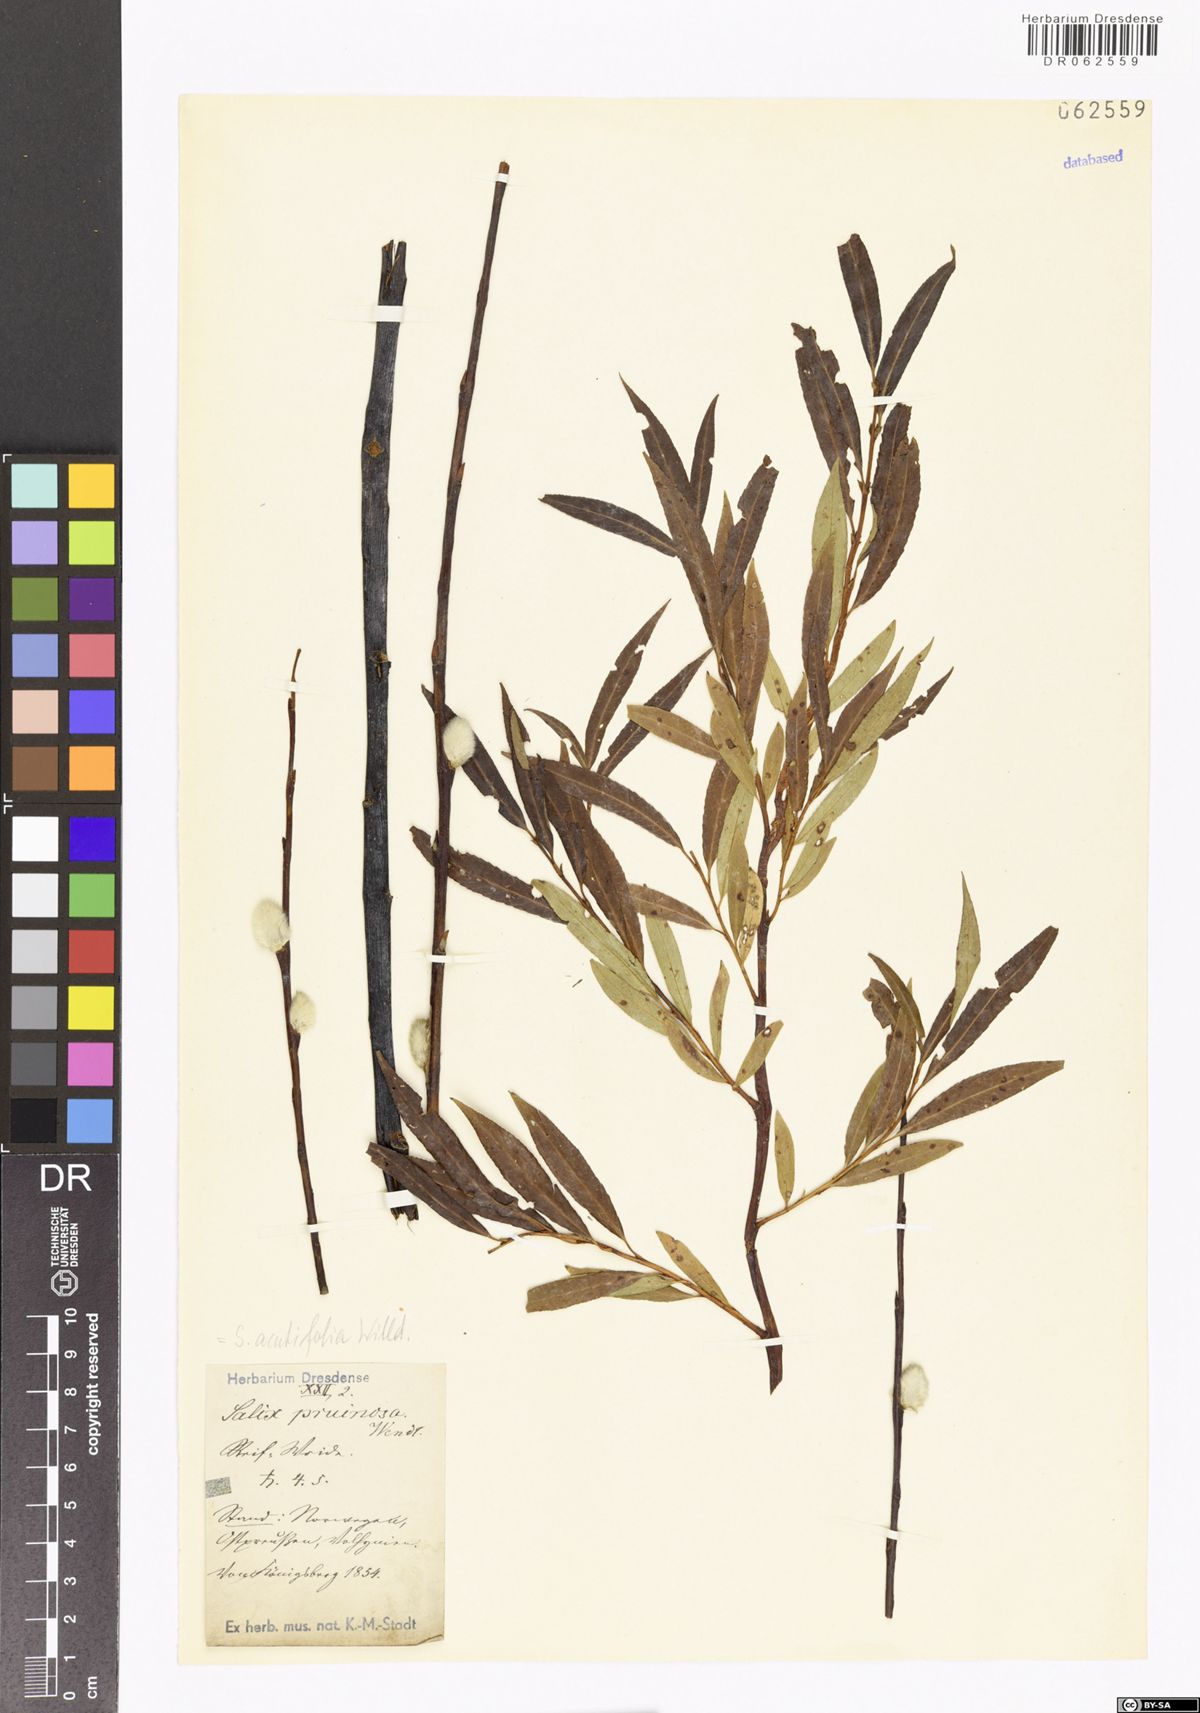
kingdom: Plantae
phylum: Tracheophyta
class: Magnoliopsida
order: Malpighiales
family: Salicaceae
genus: Salix
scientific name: Salix acutifolia
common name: Siberian violet-willow
